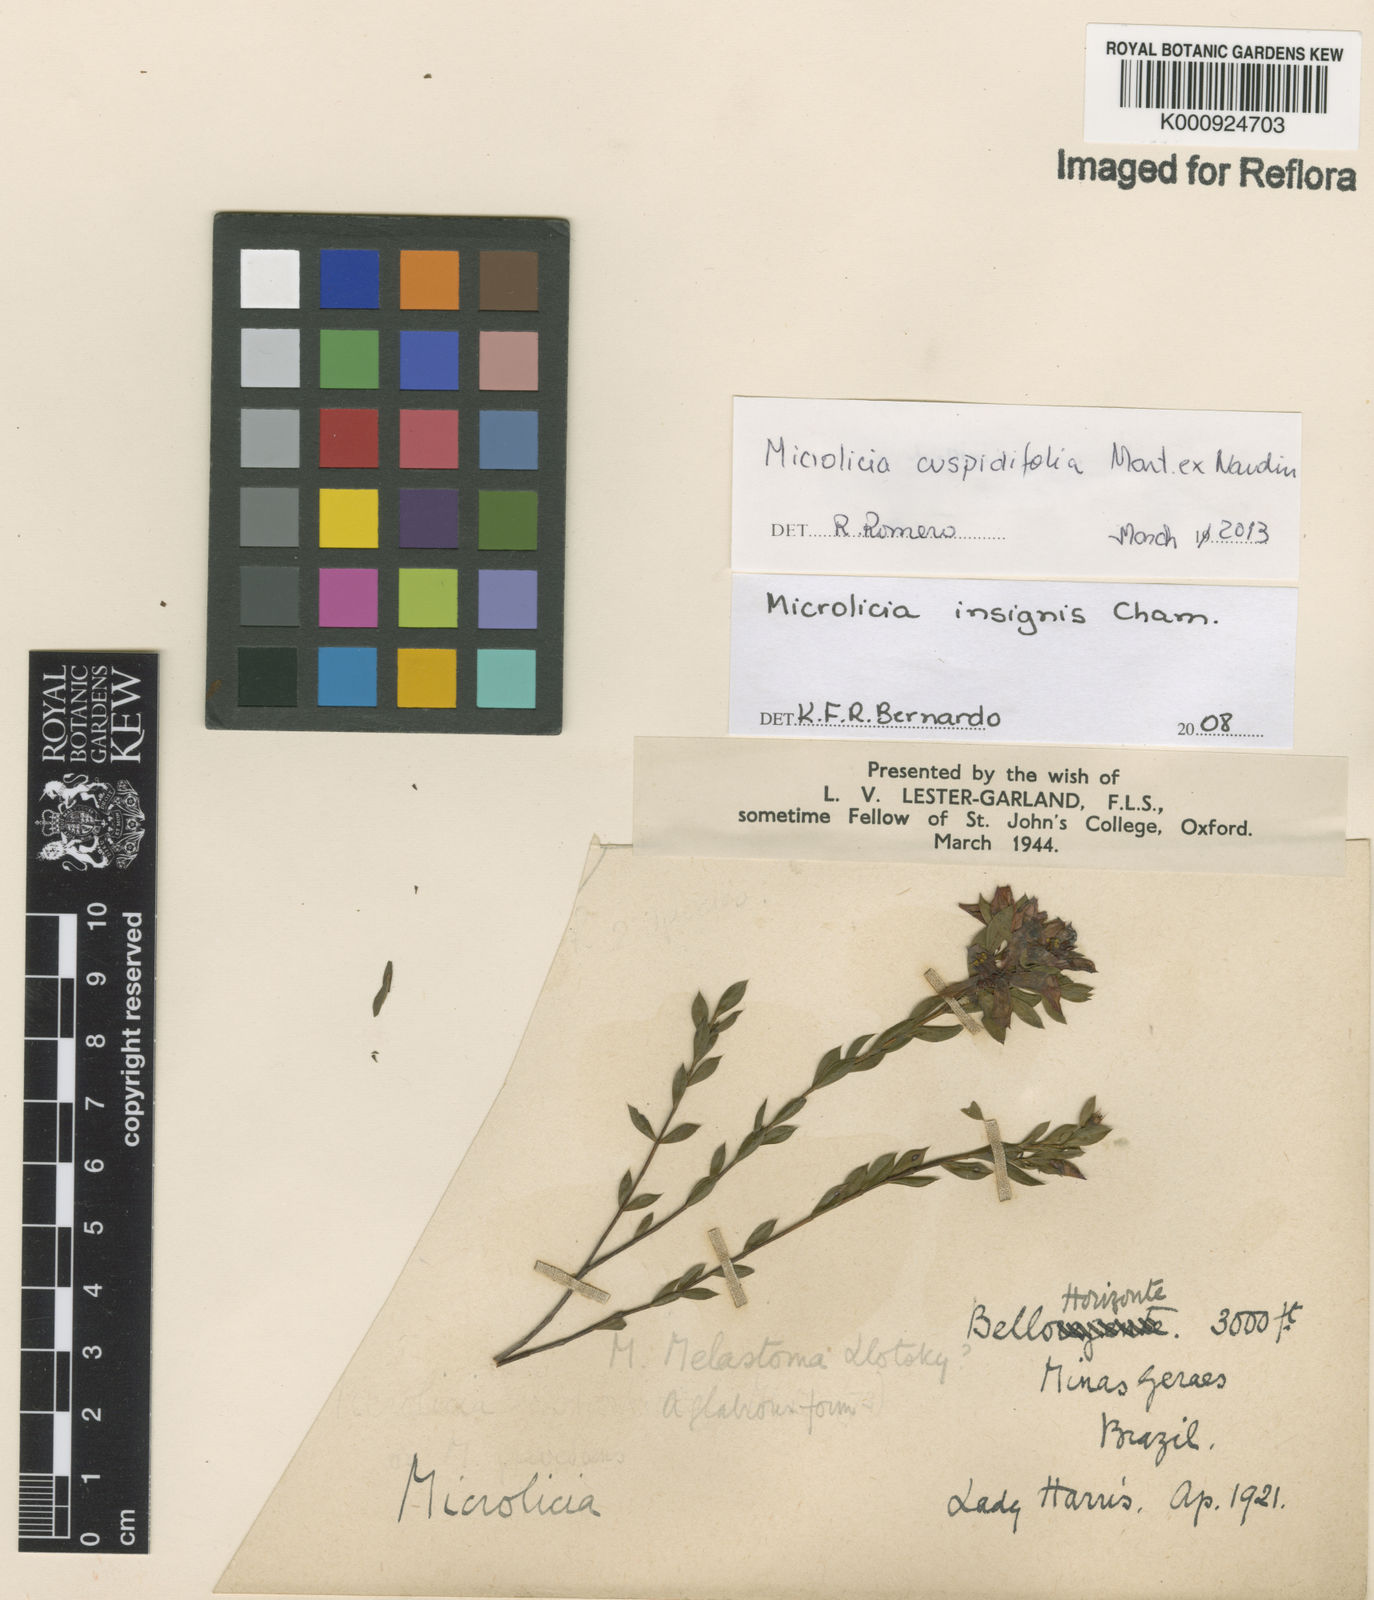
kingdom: Plantae
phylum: Tracheophyta
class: Magnoliopsida
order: Myrtales
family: Melastomataceae
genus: Microlicia
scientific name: Microlicia
